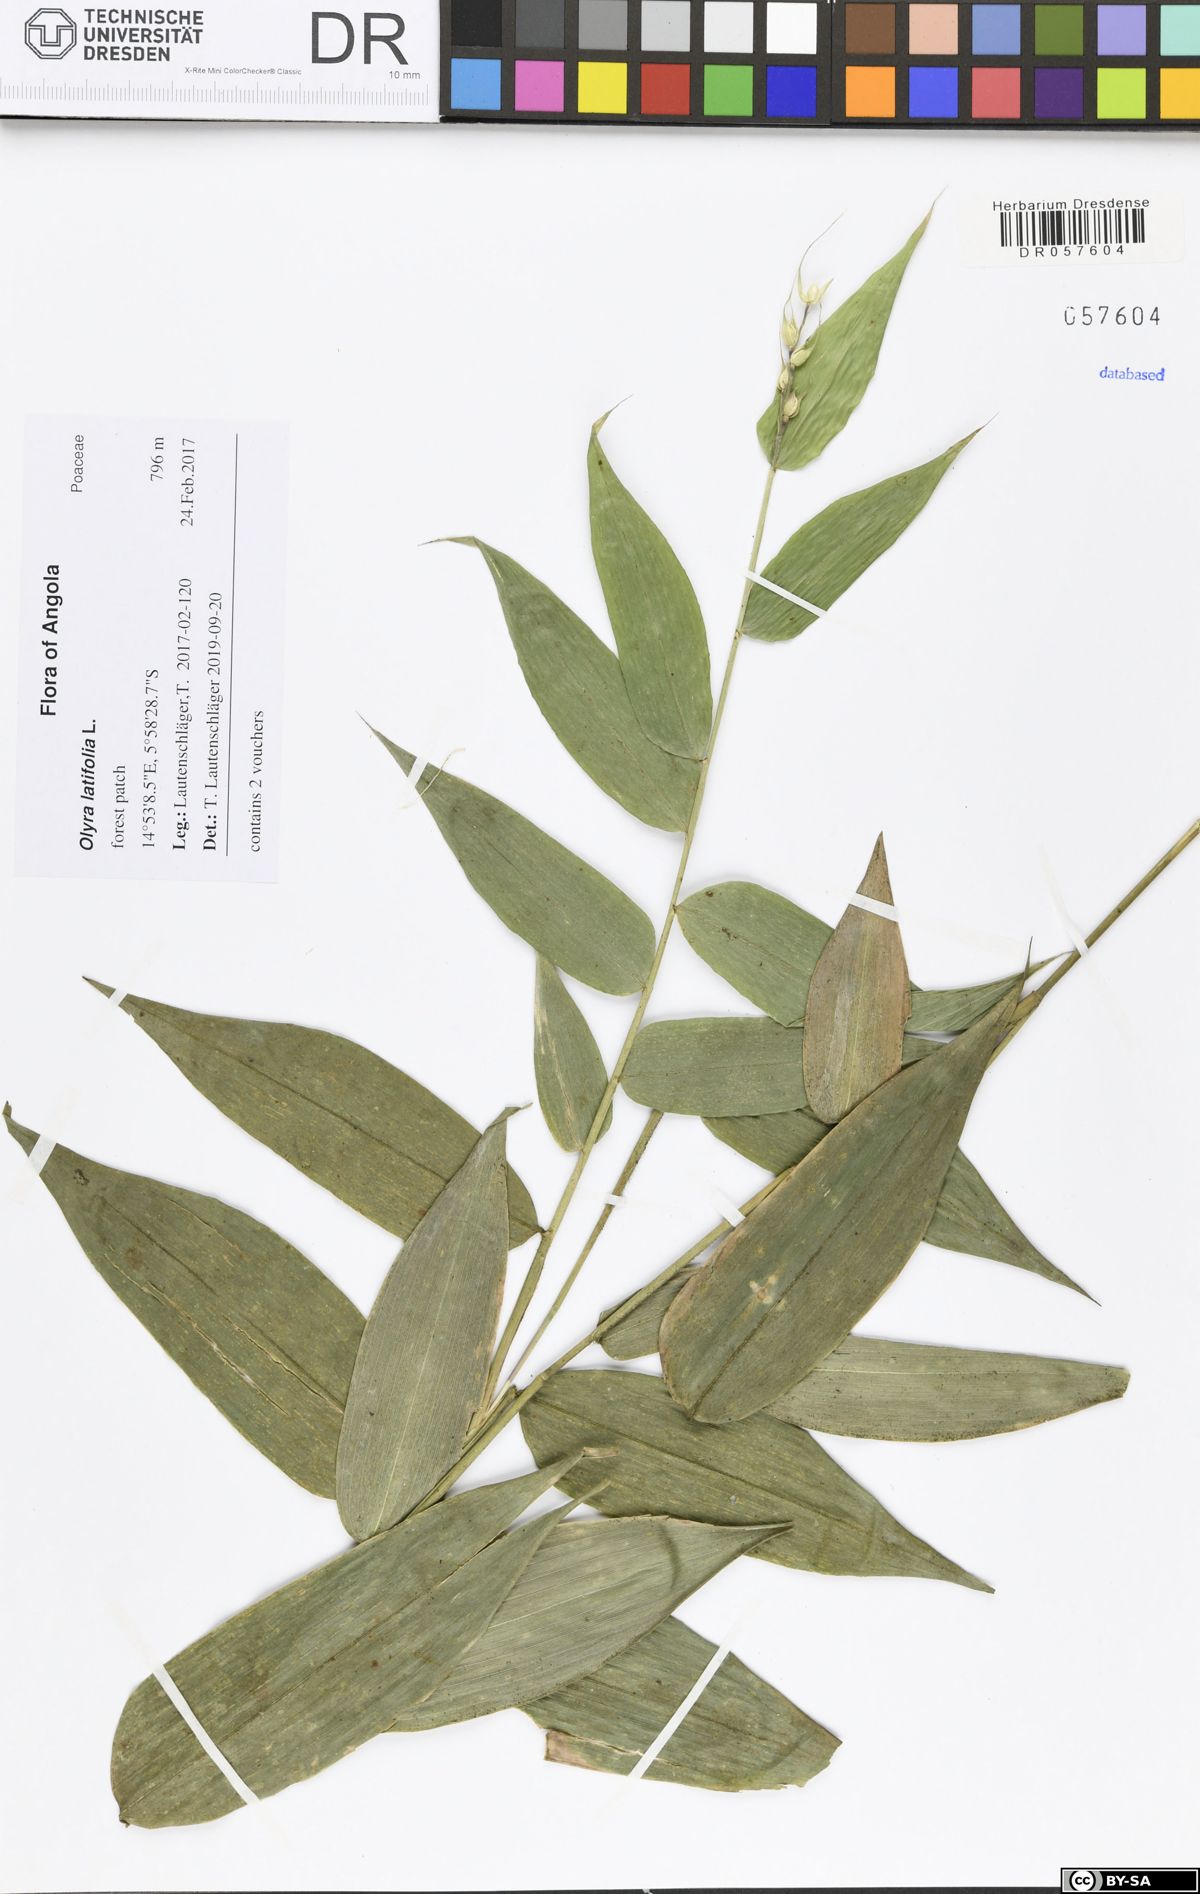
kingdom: Plantae
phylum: Tracheophyta
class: Liliopsida
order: Poales
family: Poaceae
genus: Olyra
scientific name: Olyra latifolia
